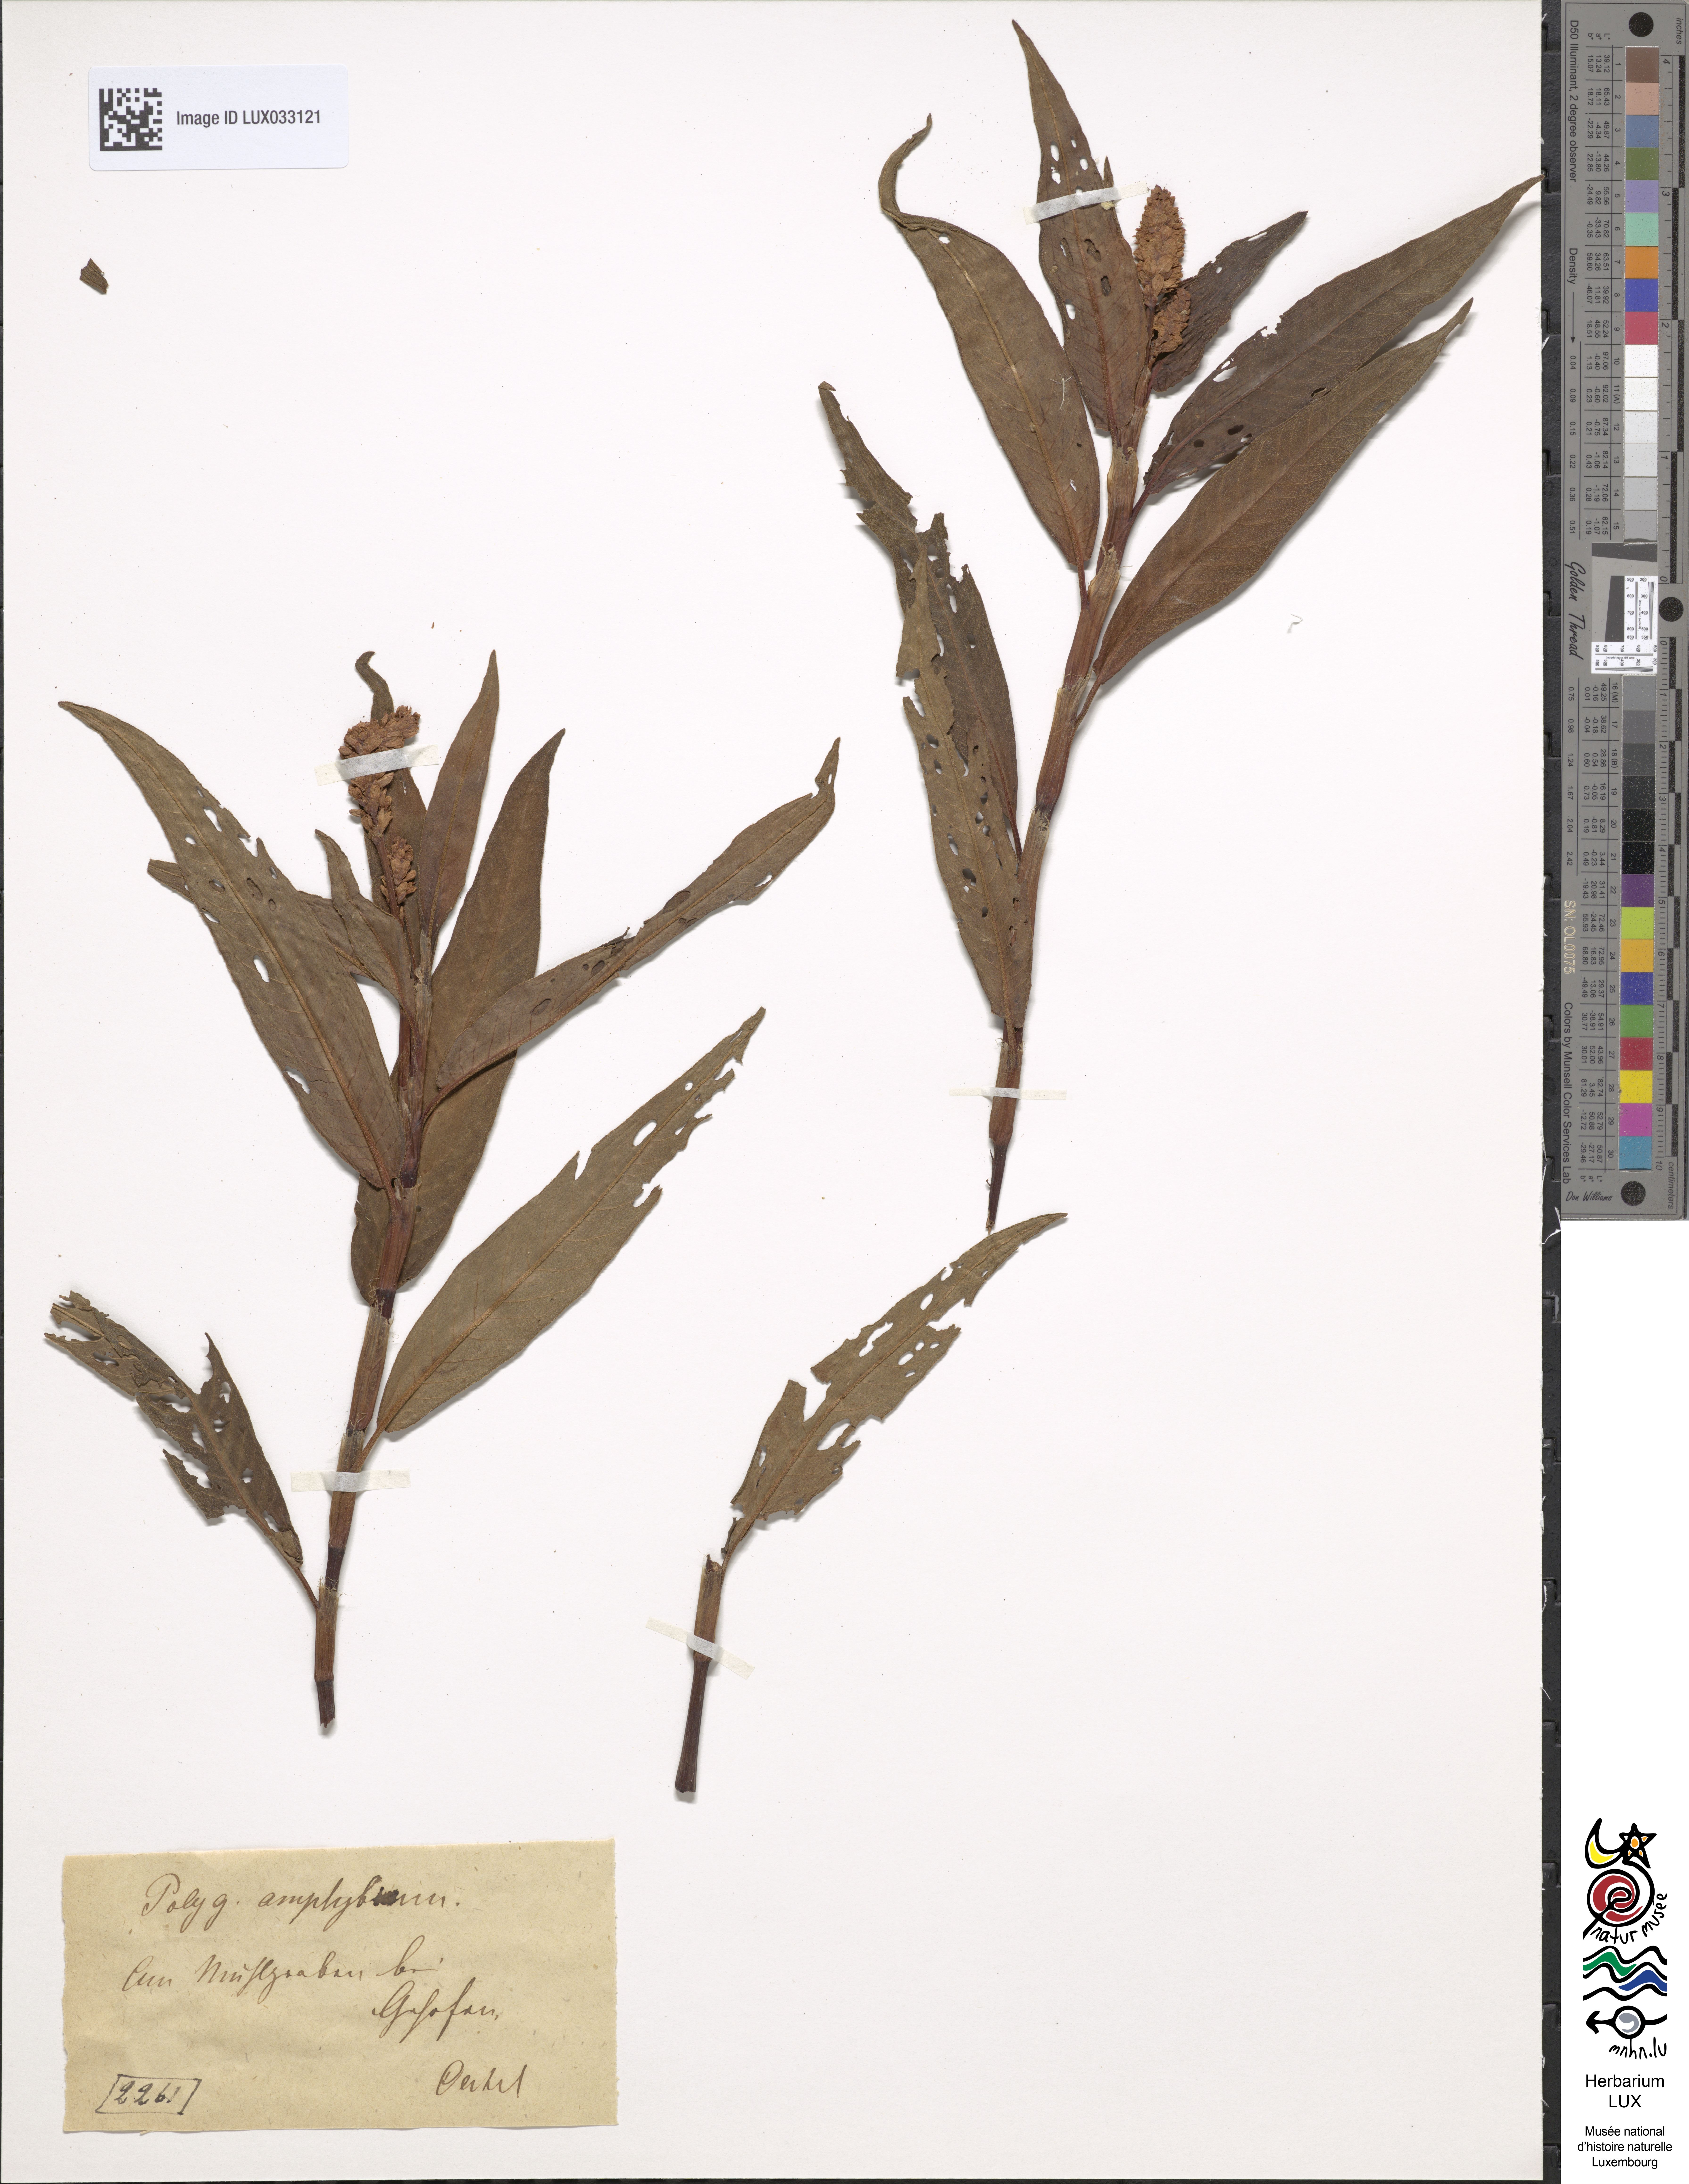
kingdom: Plantae
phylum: Tracheophyta
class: Magnoliopsida
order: Caryophyllales
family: Polygonaceae
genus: Persicaria
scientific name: Persicaria amphibia
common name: Amphibious bistort
